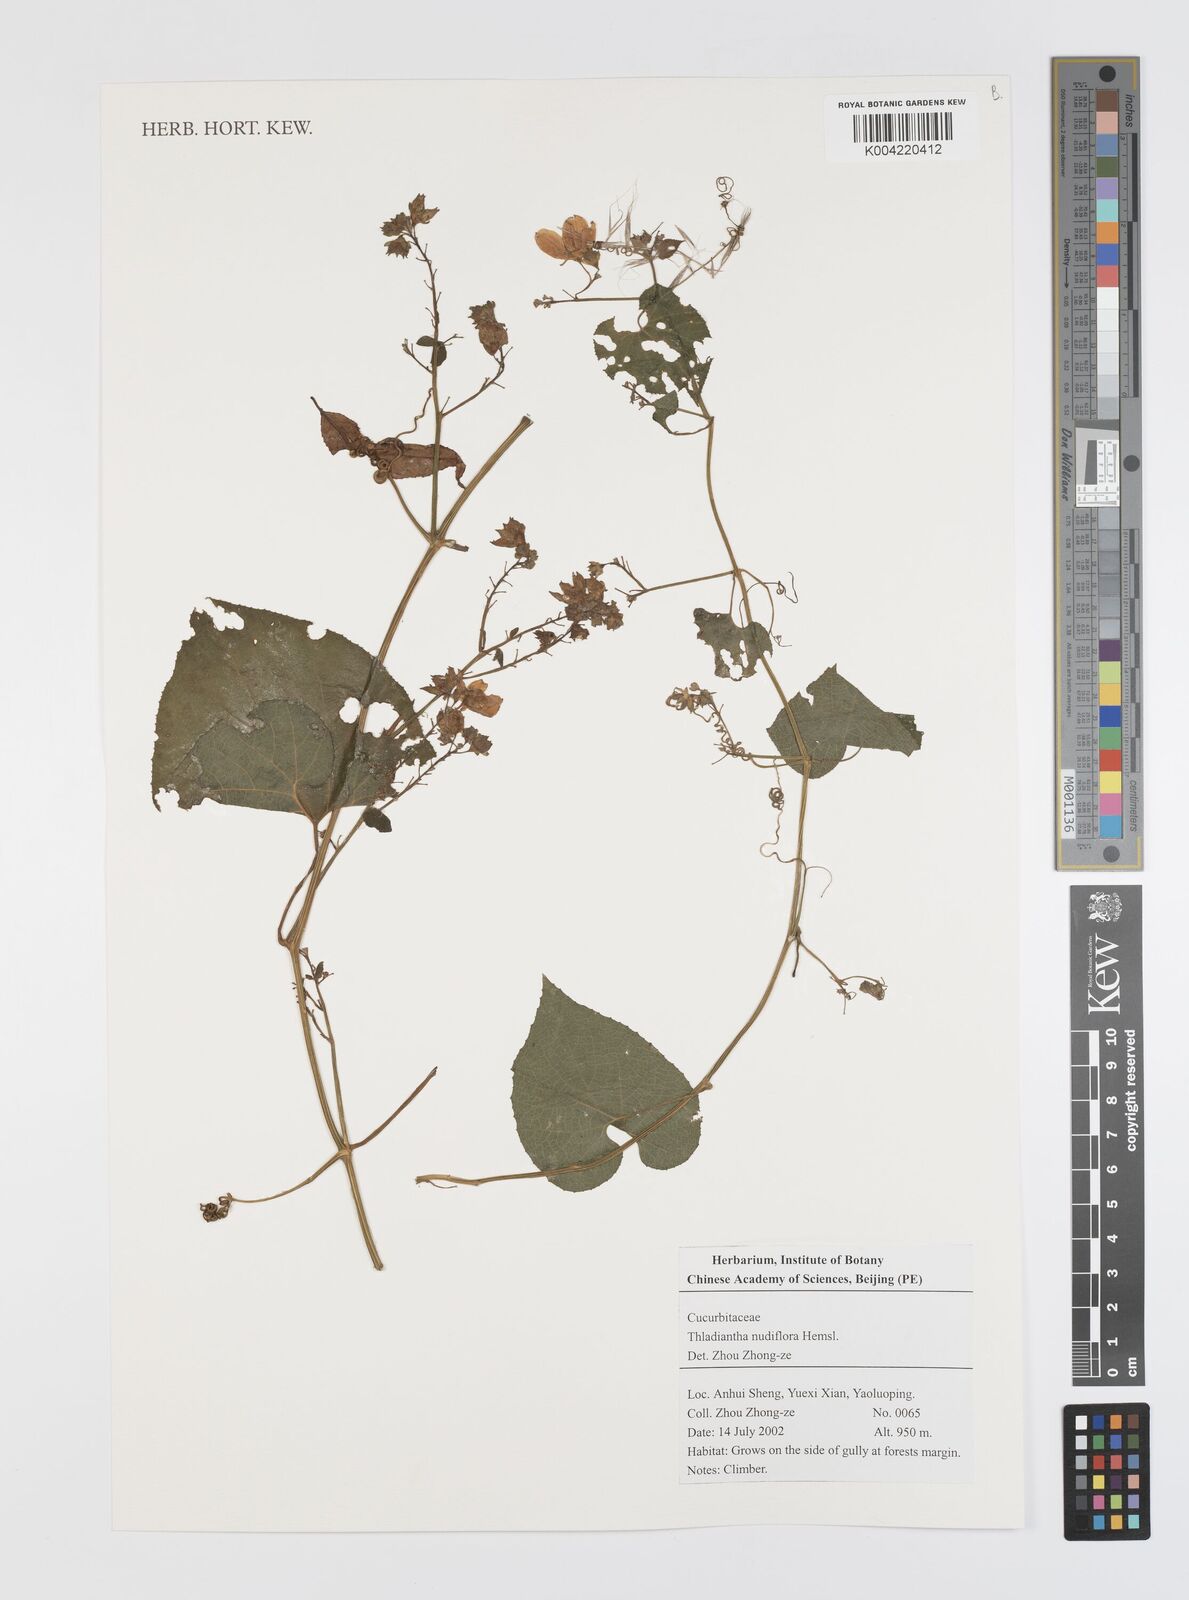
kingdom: Plantae
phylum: Tracheophyta
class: Magnoliopsida
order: Cucurbitales
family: Cucurbitaceae
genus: Thladiantha
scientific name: Thladiantha nudiflora
